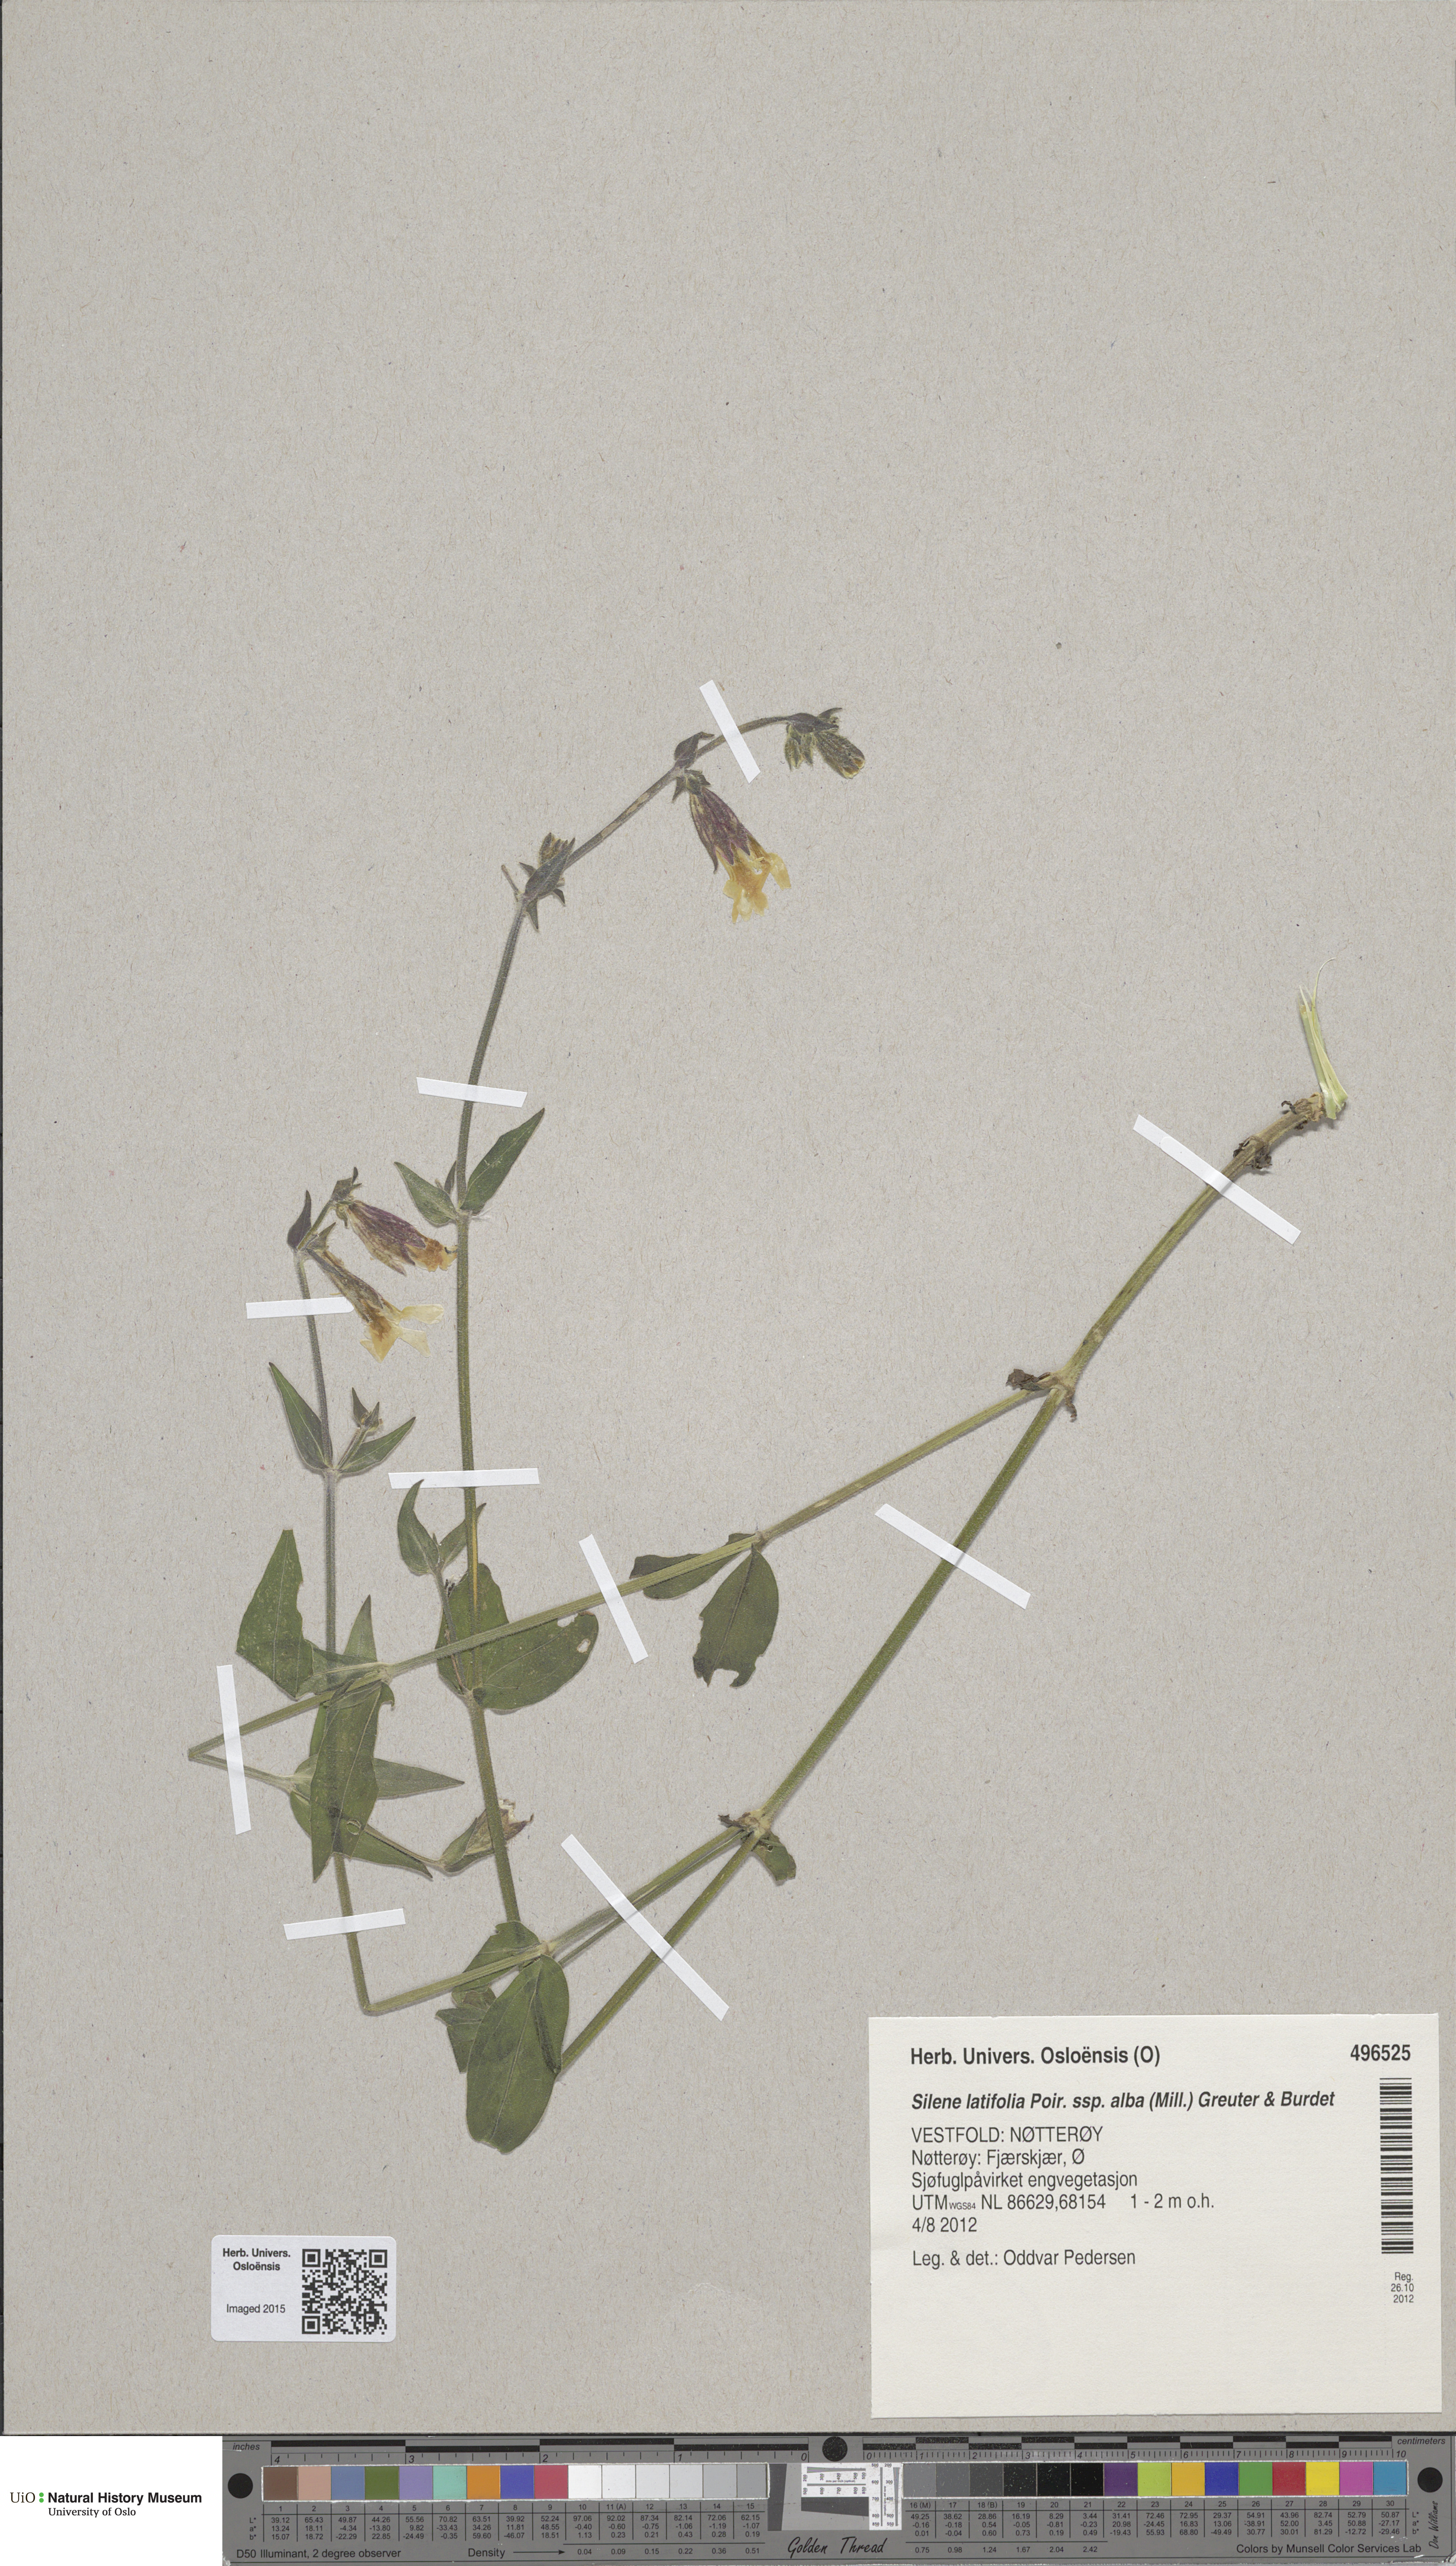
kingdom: Plantae
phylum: Tracheophyta
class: Magnoliopsida
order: Caryophyllales
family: Caryophyllaceae
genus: Silene
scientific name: Silene latifolia
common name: White campion
